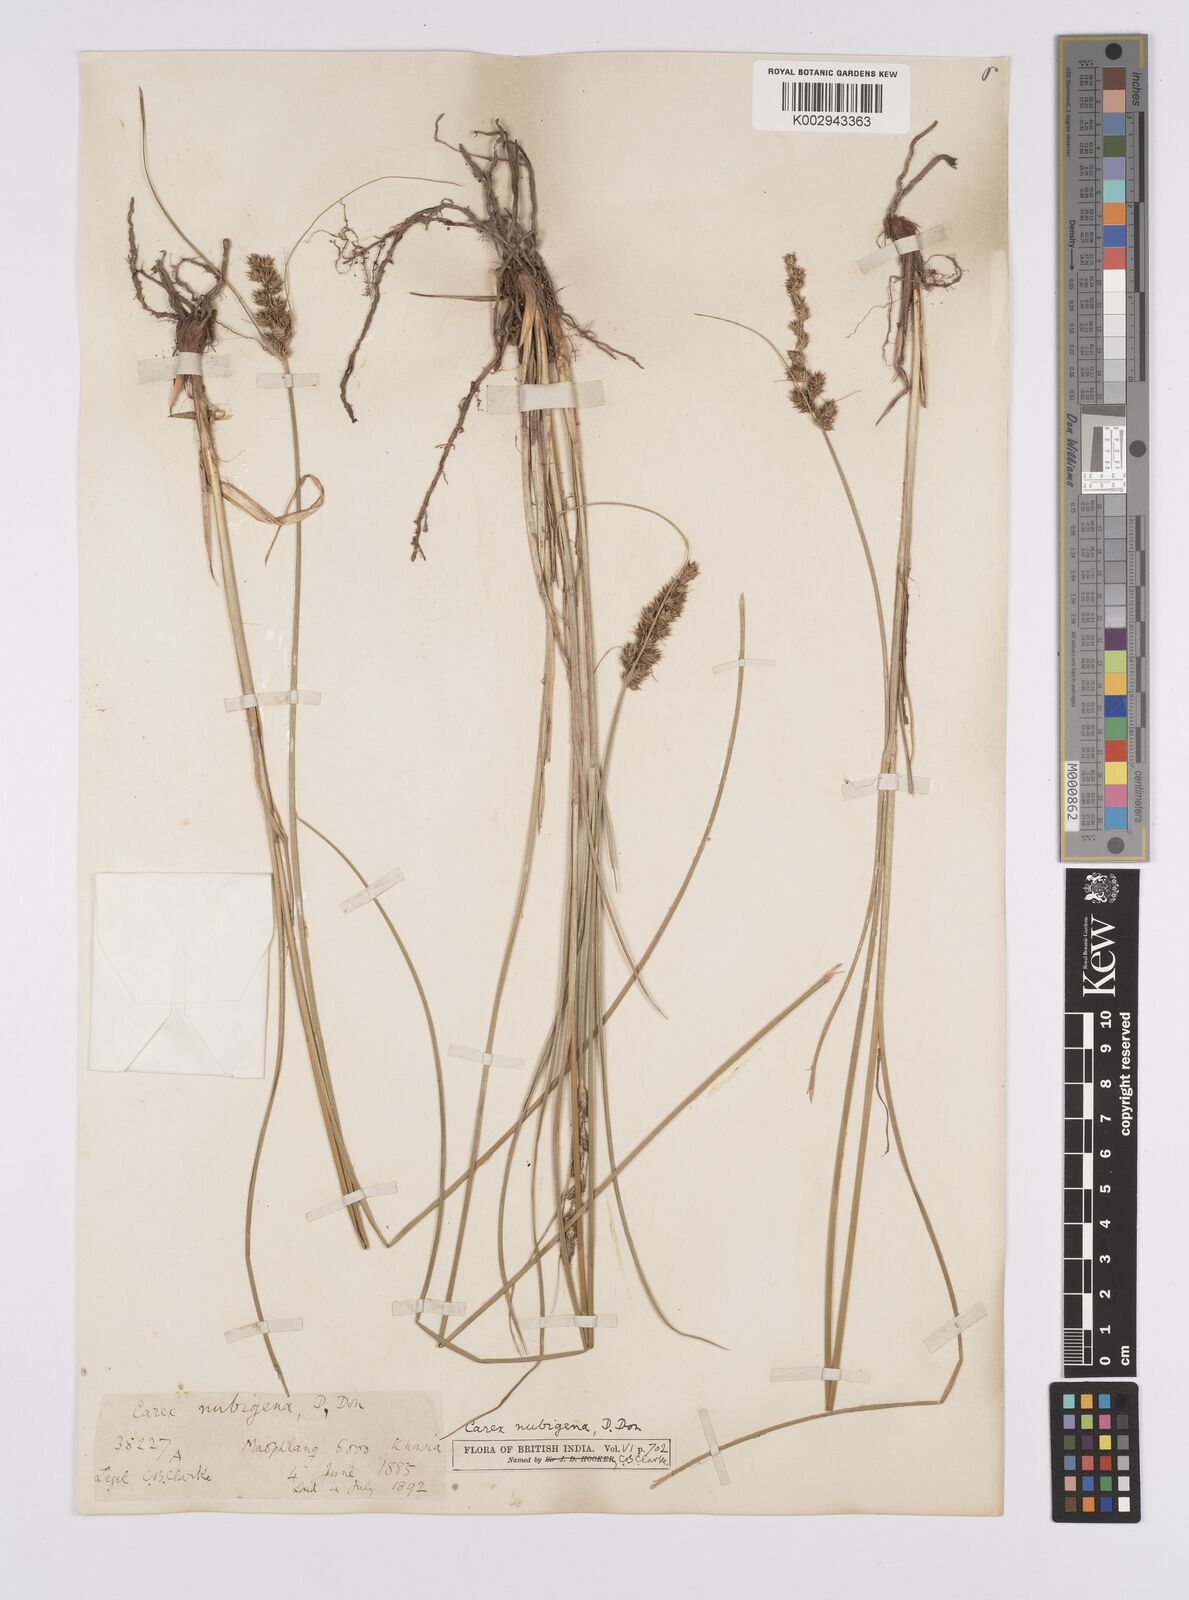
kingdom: Plantae
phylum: Tracheophyta
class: Liliopsida
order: Poales
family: Cyperaceae
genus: Carex
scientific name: Carex nubigena
